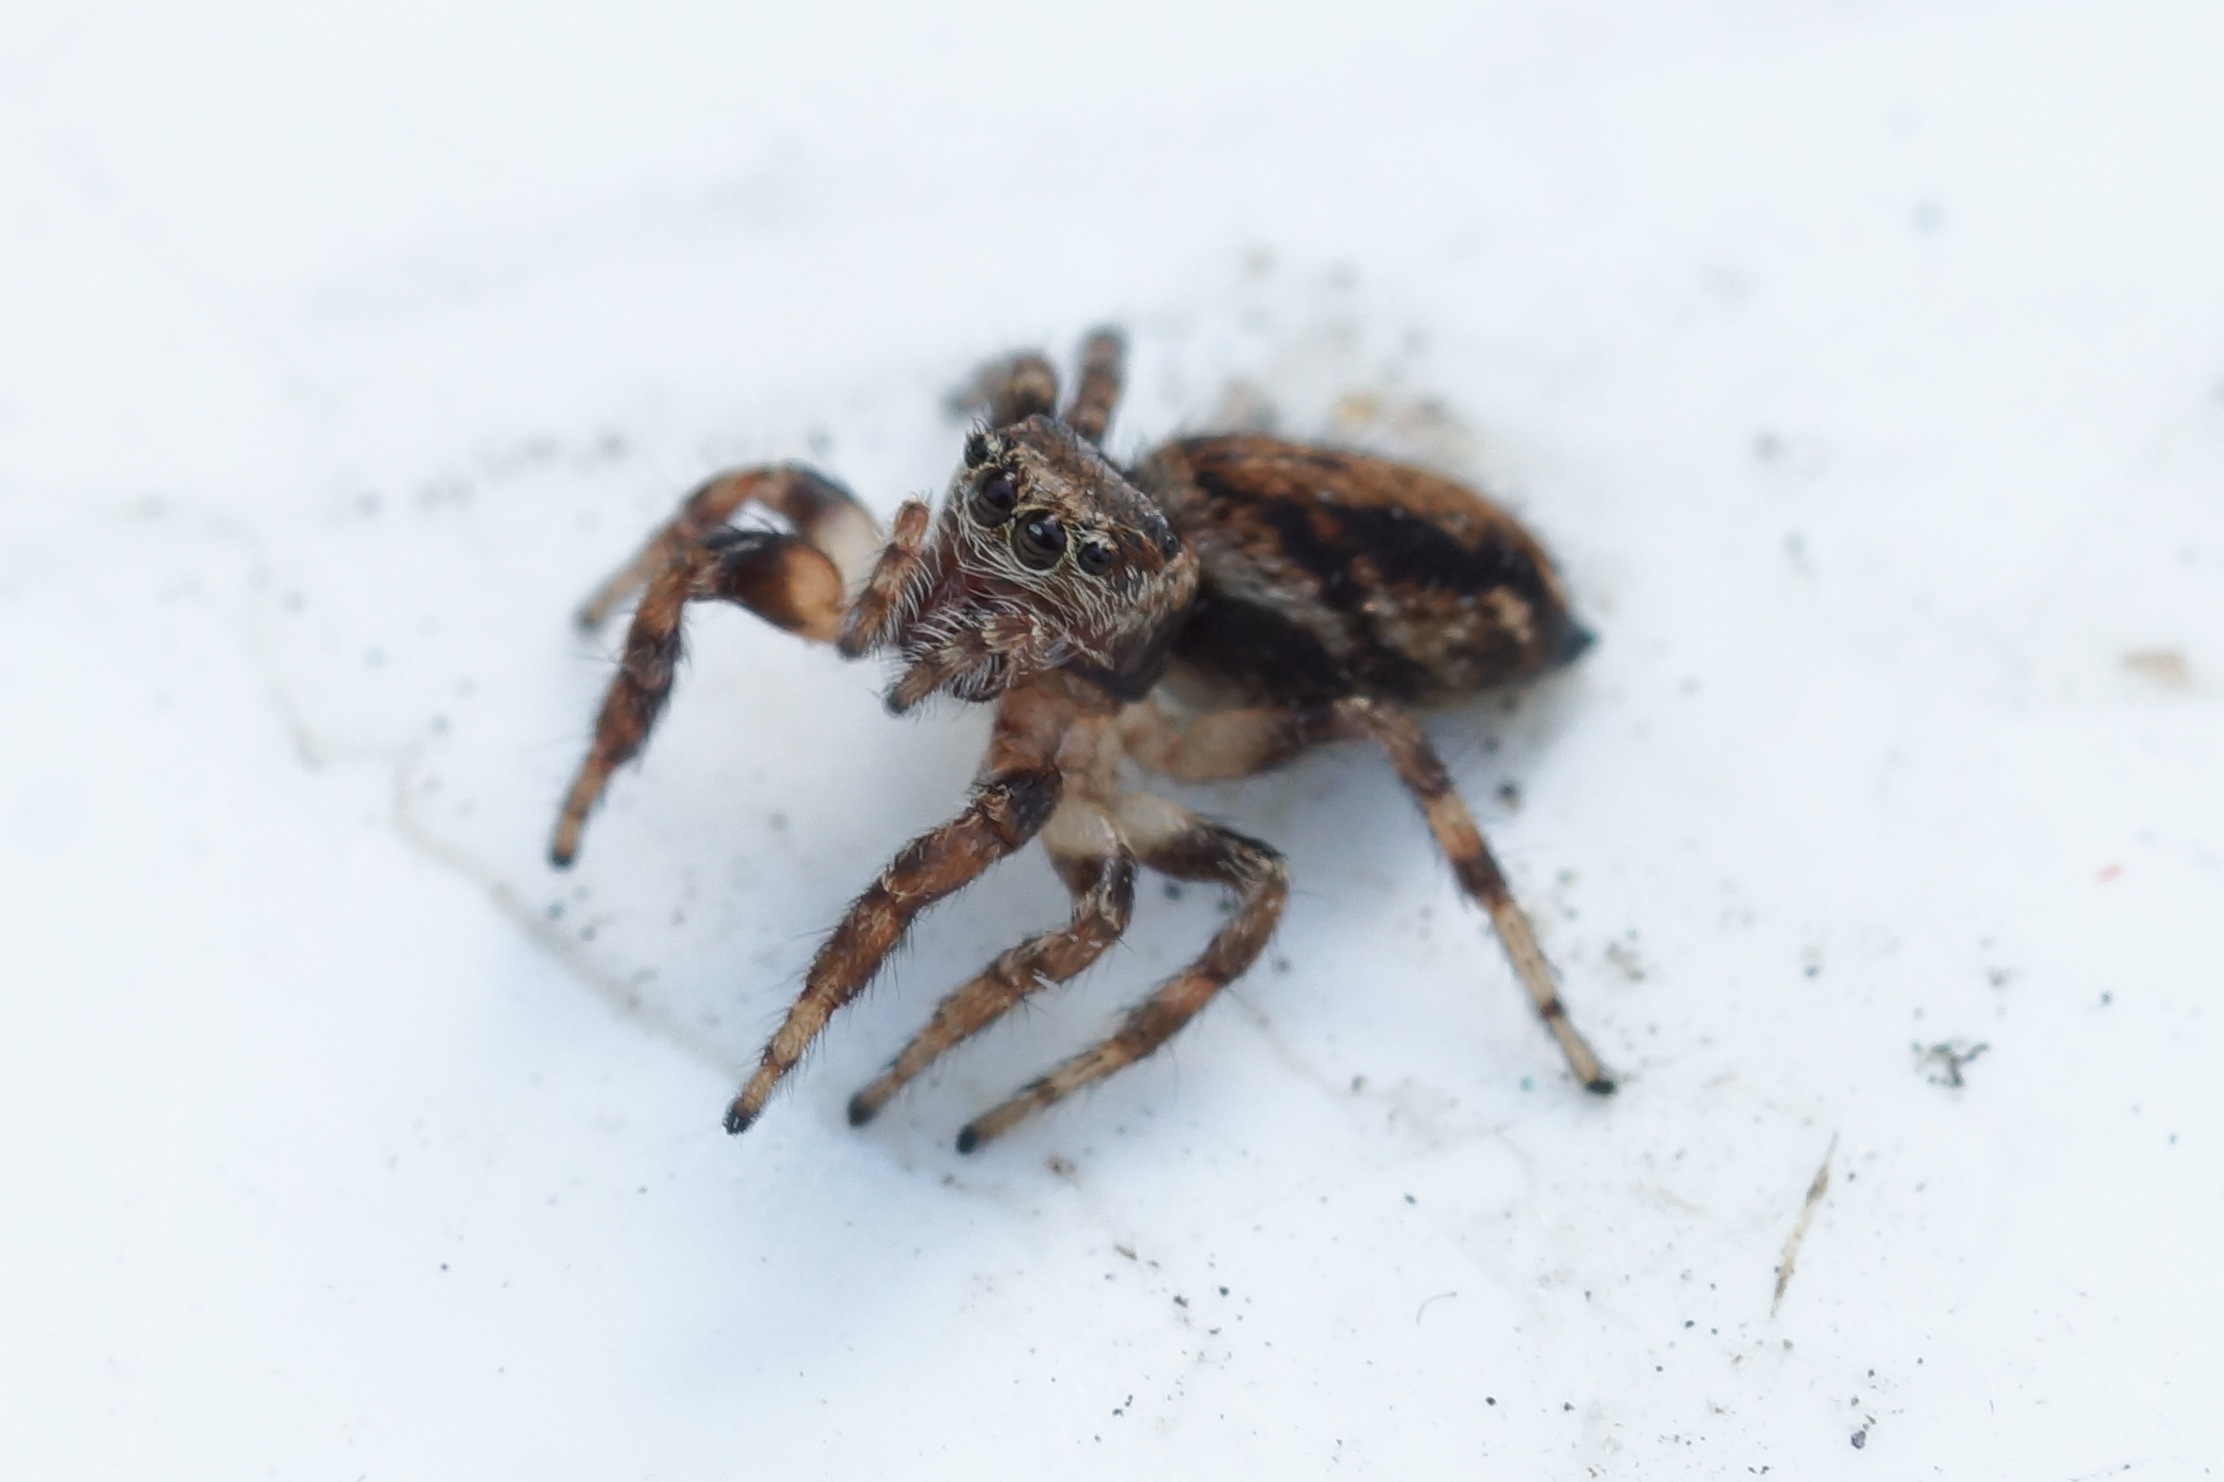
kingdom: Animalia
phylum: Arthropoda
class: Arachnida
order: Araneae
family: Salticidae
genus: Evarcha
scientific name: Evarcha falcata
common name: Broget springedderkop
